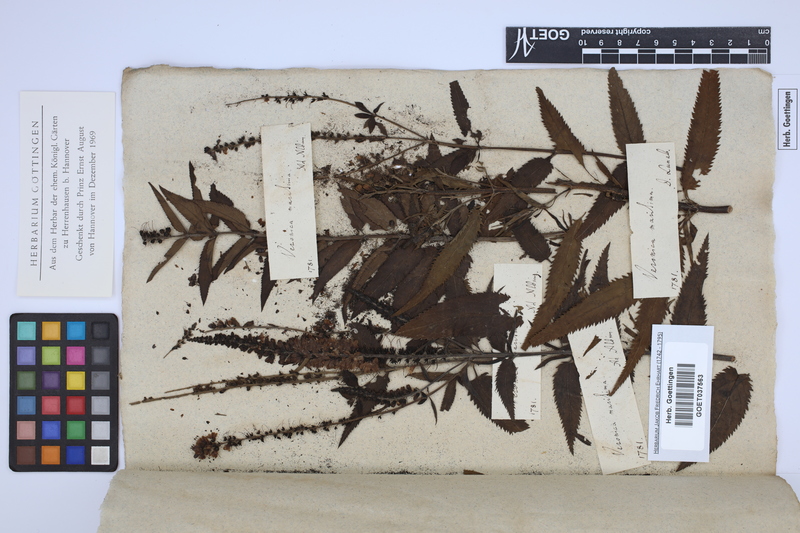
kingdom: Plantae
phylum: Tracheophyta
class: Magnoliopsida
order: Lamiales
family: Plantaginaceae
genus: Veronica
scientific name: Veronica maritima
